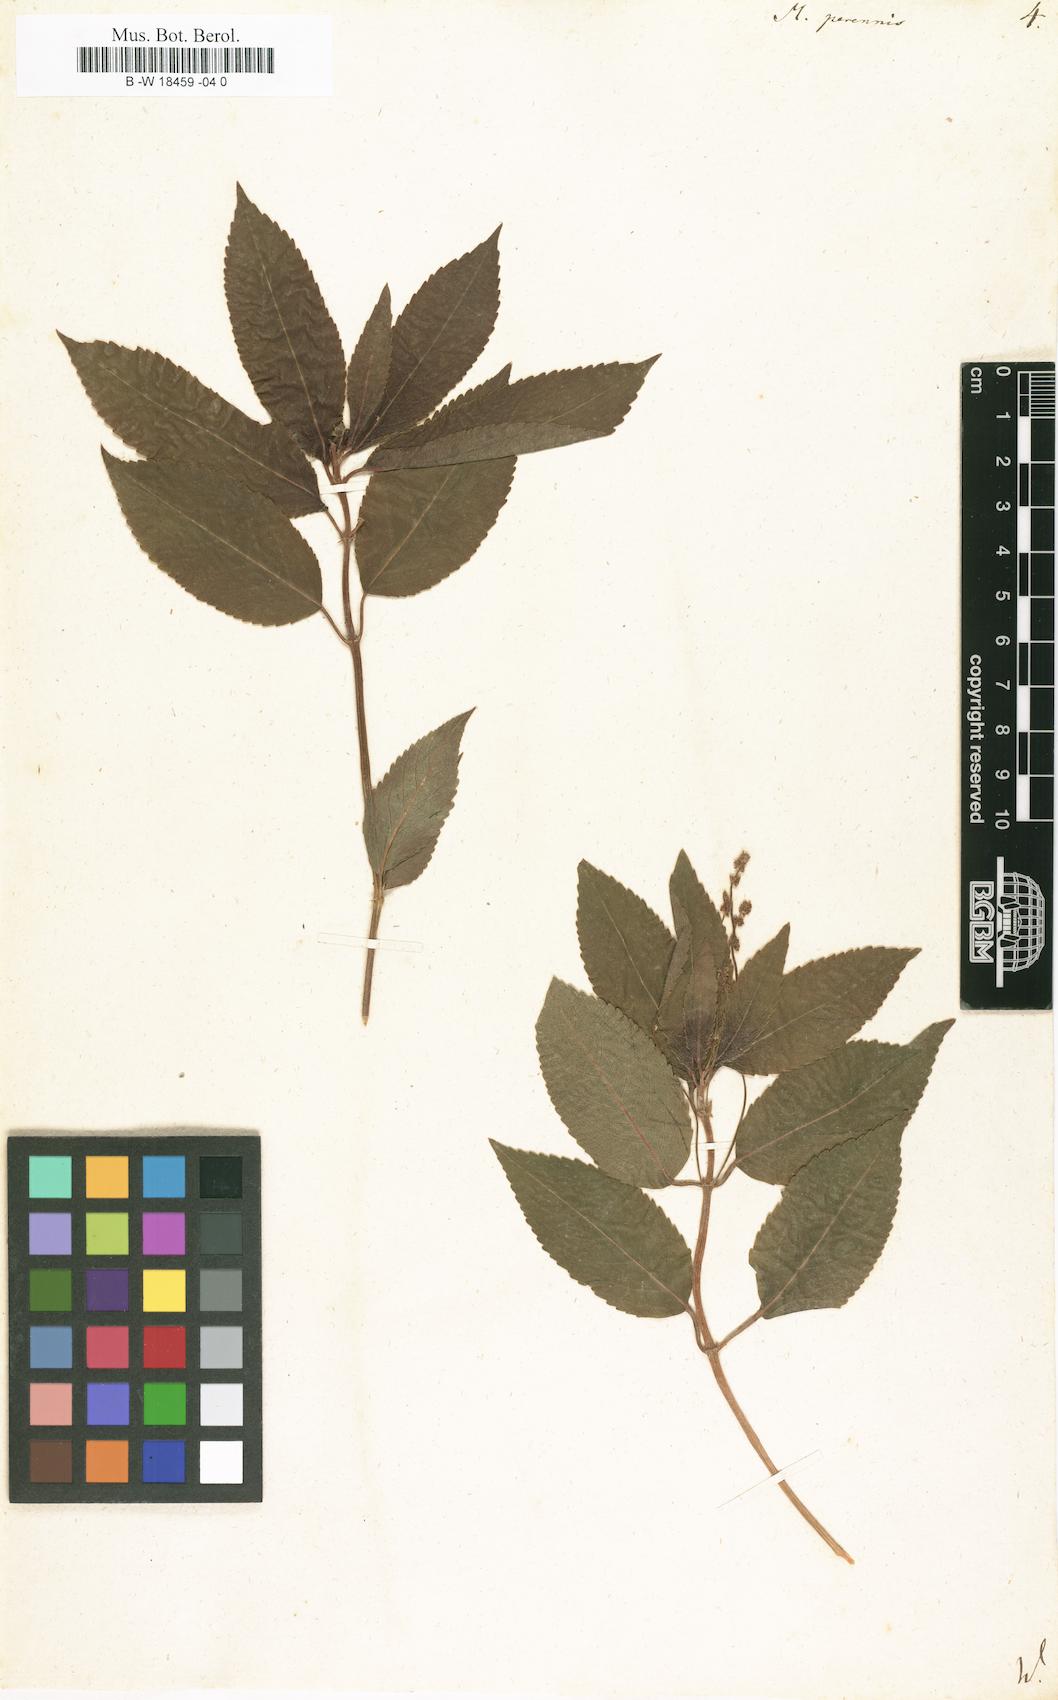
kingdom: Plantae
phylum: Tracheophyta
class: Magnoliopsida
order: Malpighiales
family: Euphorbiaceae
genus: Mercurialis
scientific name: Mercurialis perennis
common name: Dog mercury
